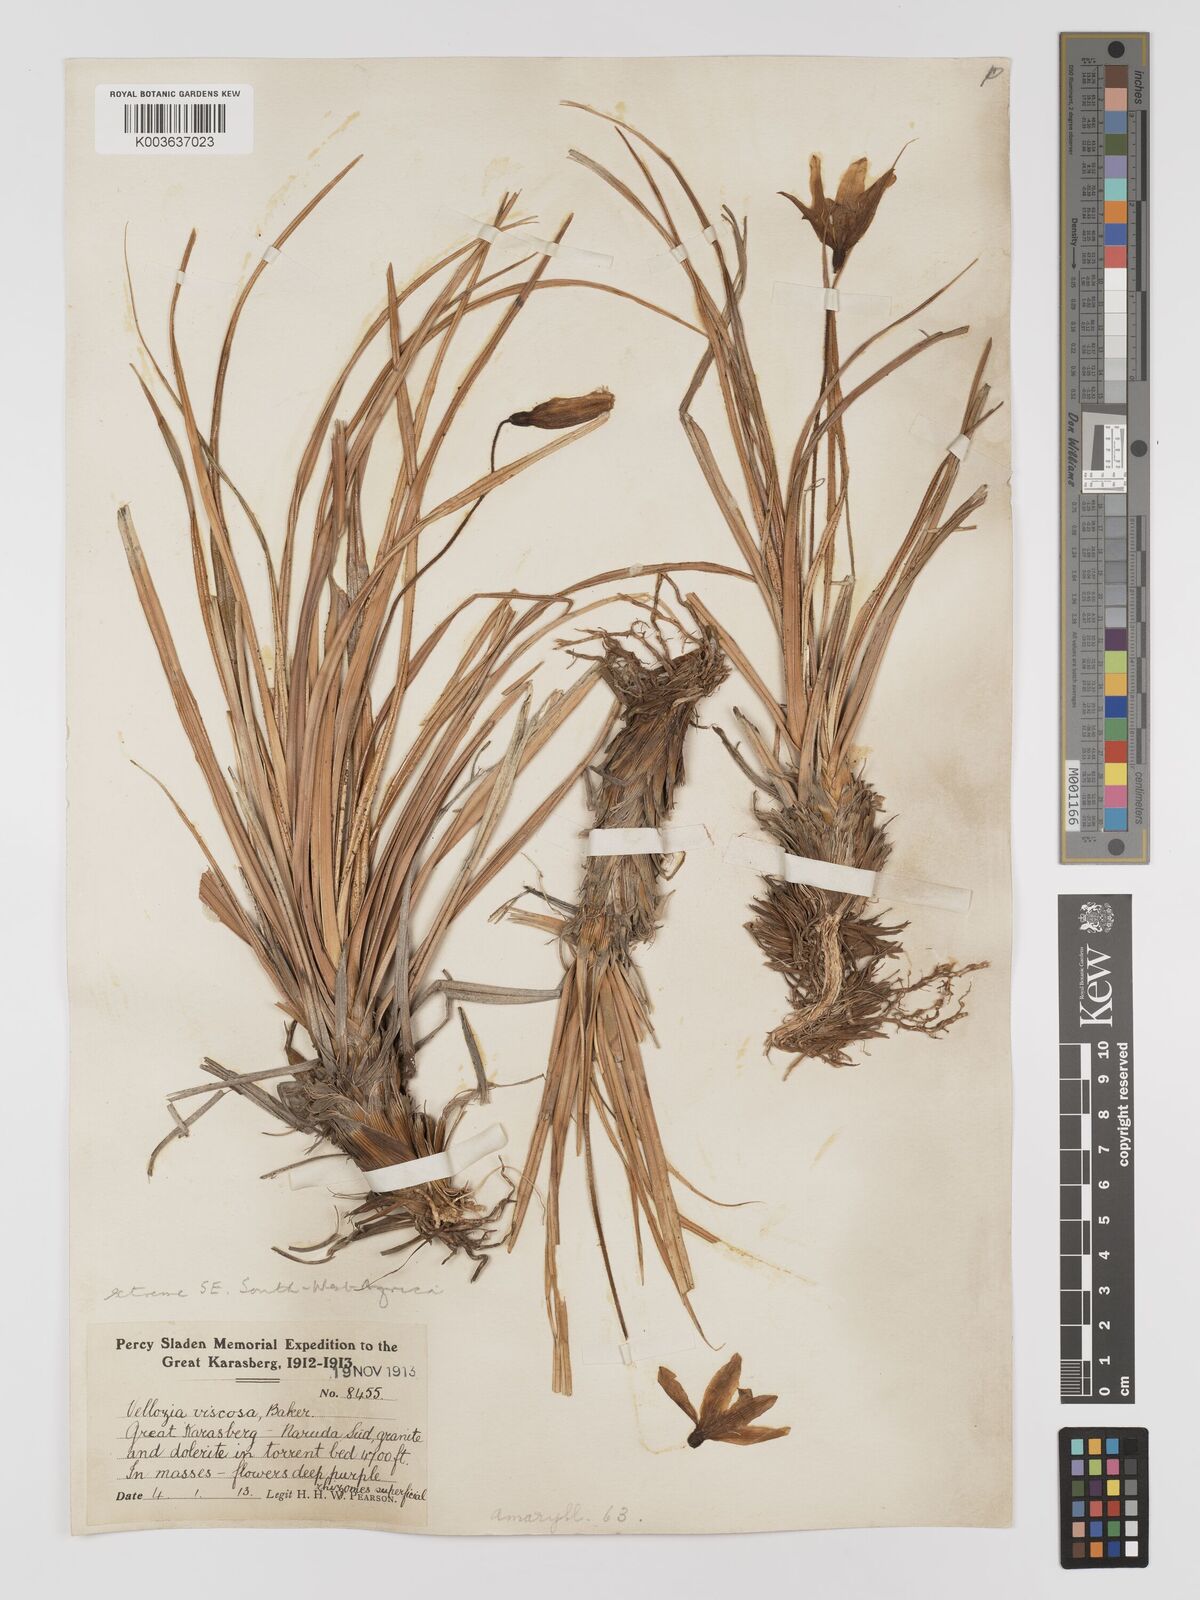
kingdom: Plantae
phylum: Tracheophyta
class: Liliopsida
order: Pandanales
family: Velloziaceae
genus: Xerophyta
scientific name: Xerophyta viscosa
